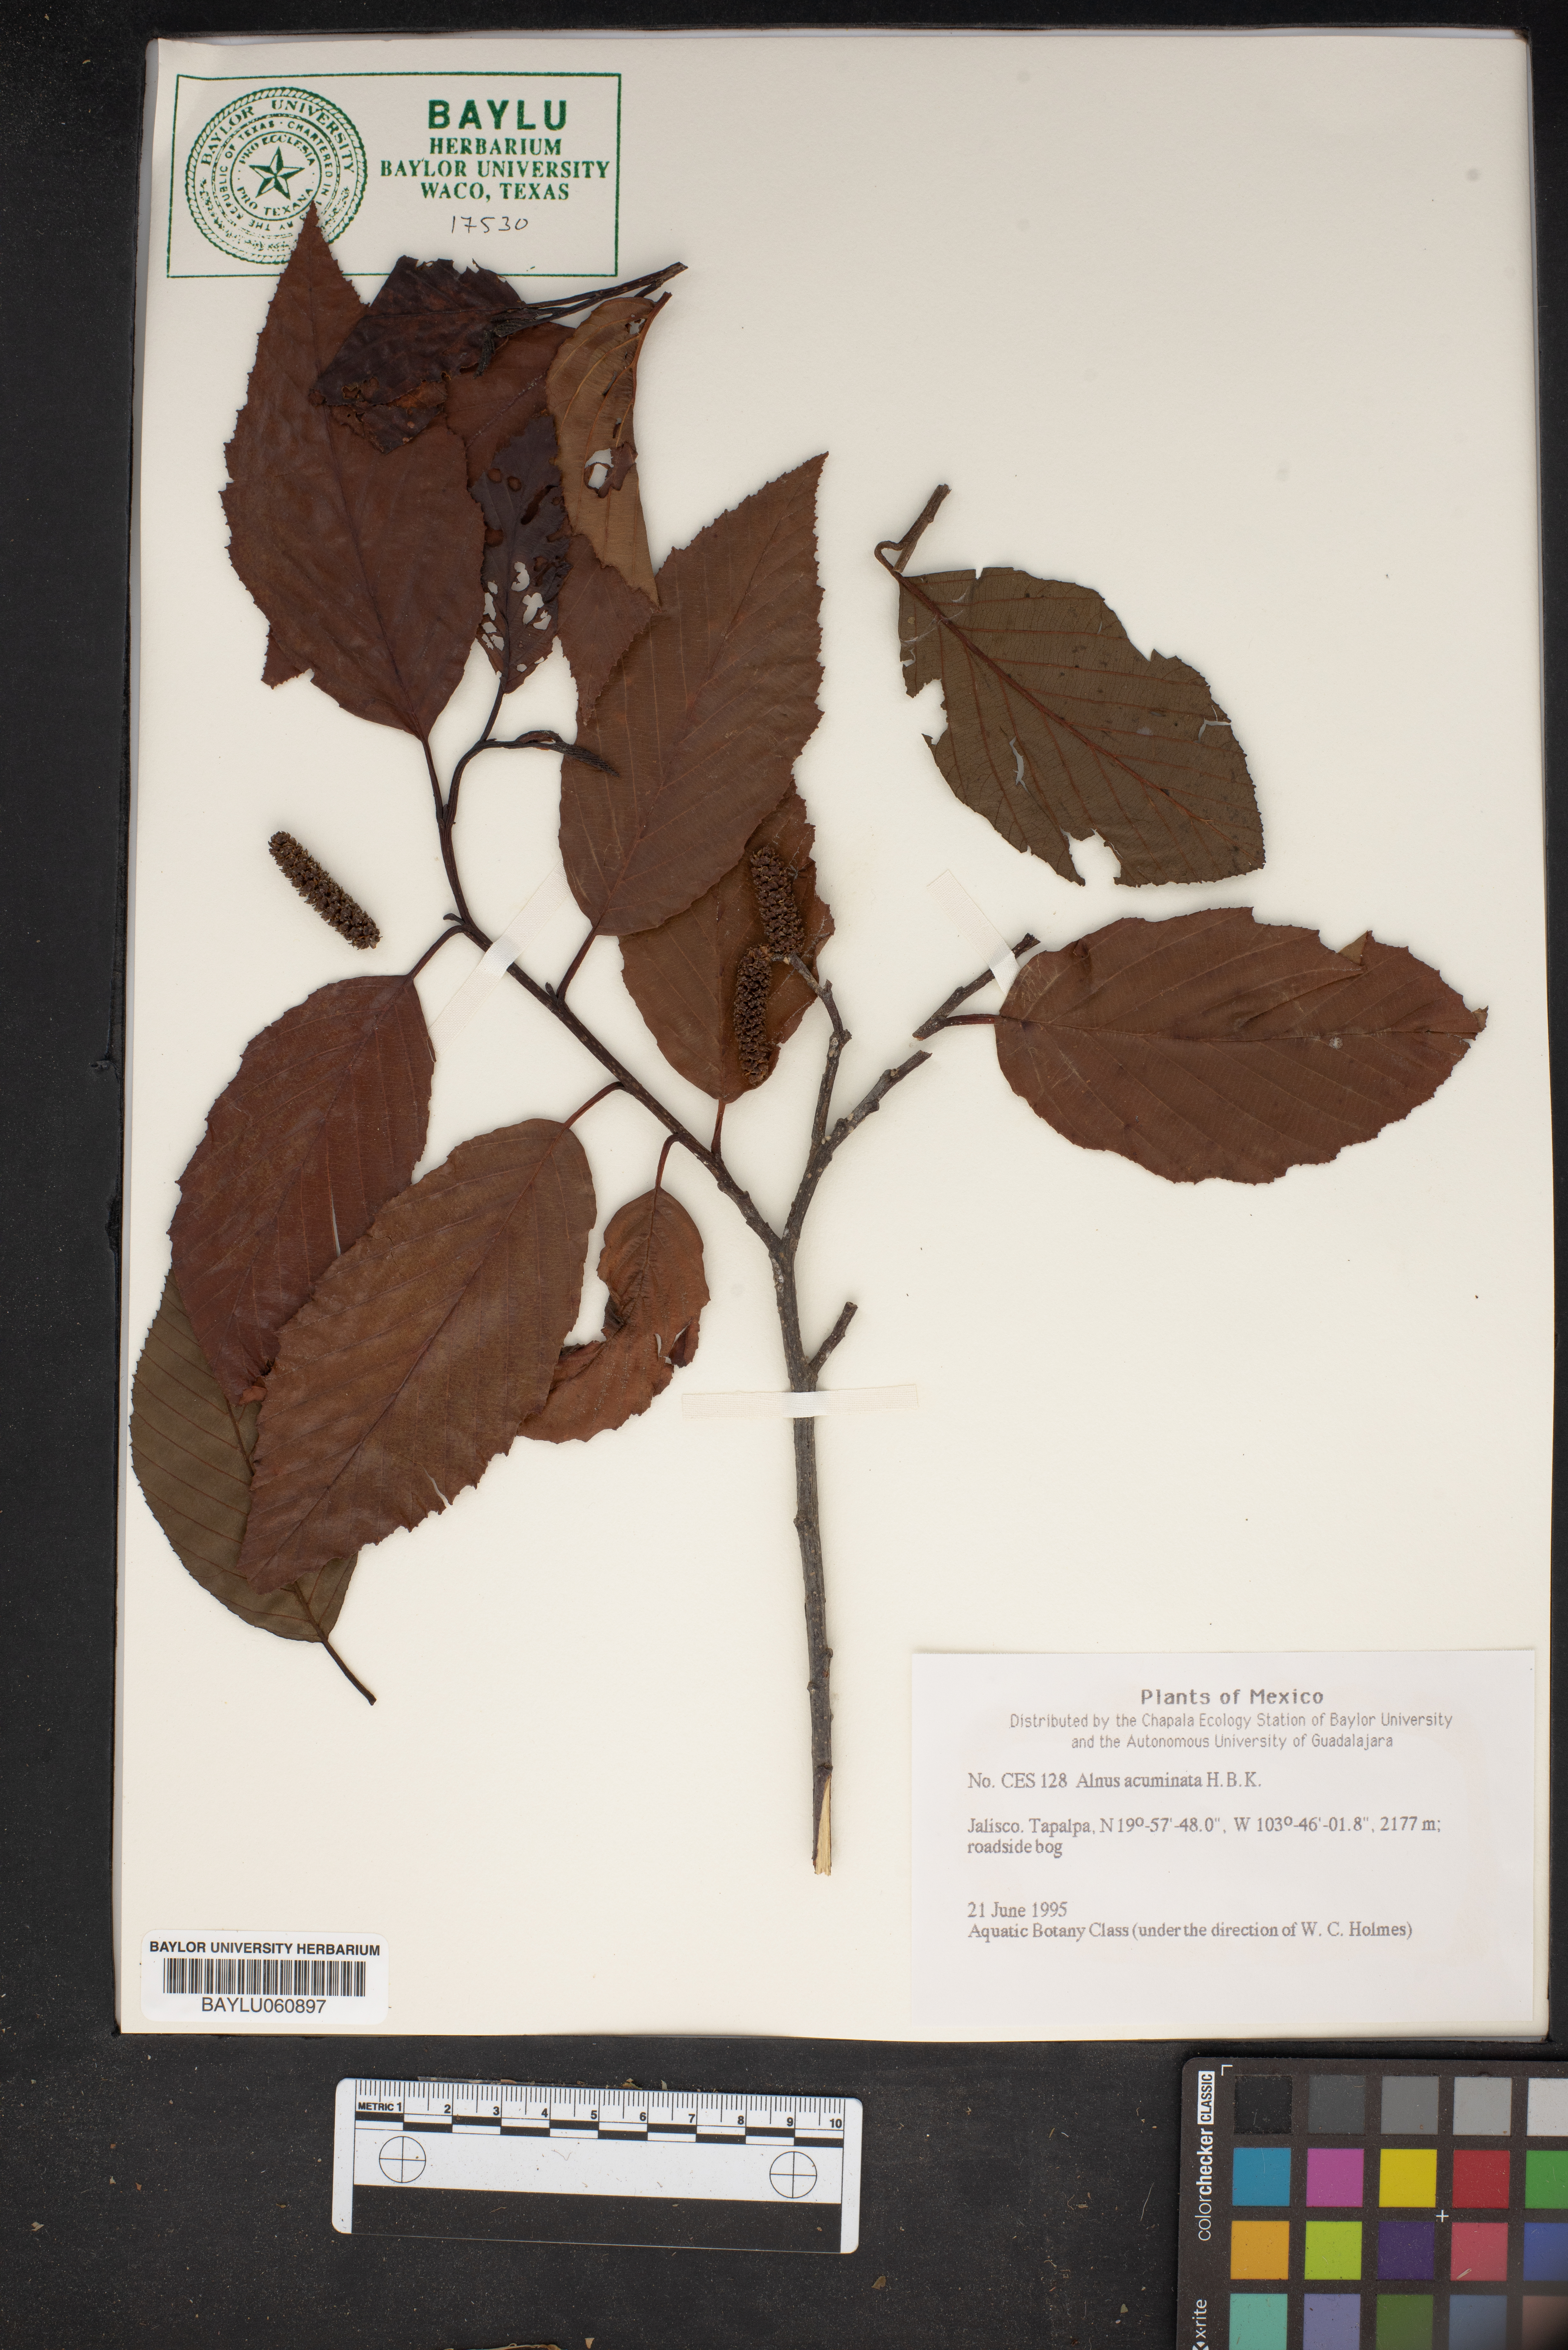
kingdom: Plantae
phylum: Tracheophyta
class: Magnoliopsida
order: Fagales
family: Betulaceae
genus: Alnus
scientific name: Alnus acuminata
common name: Alder
